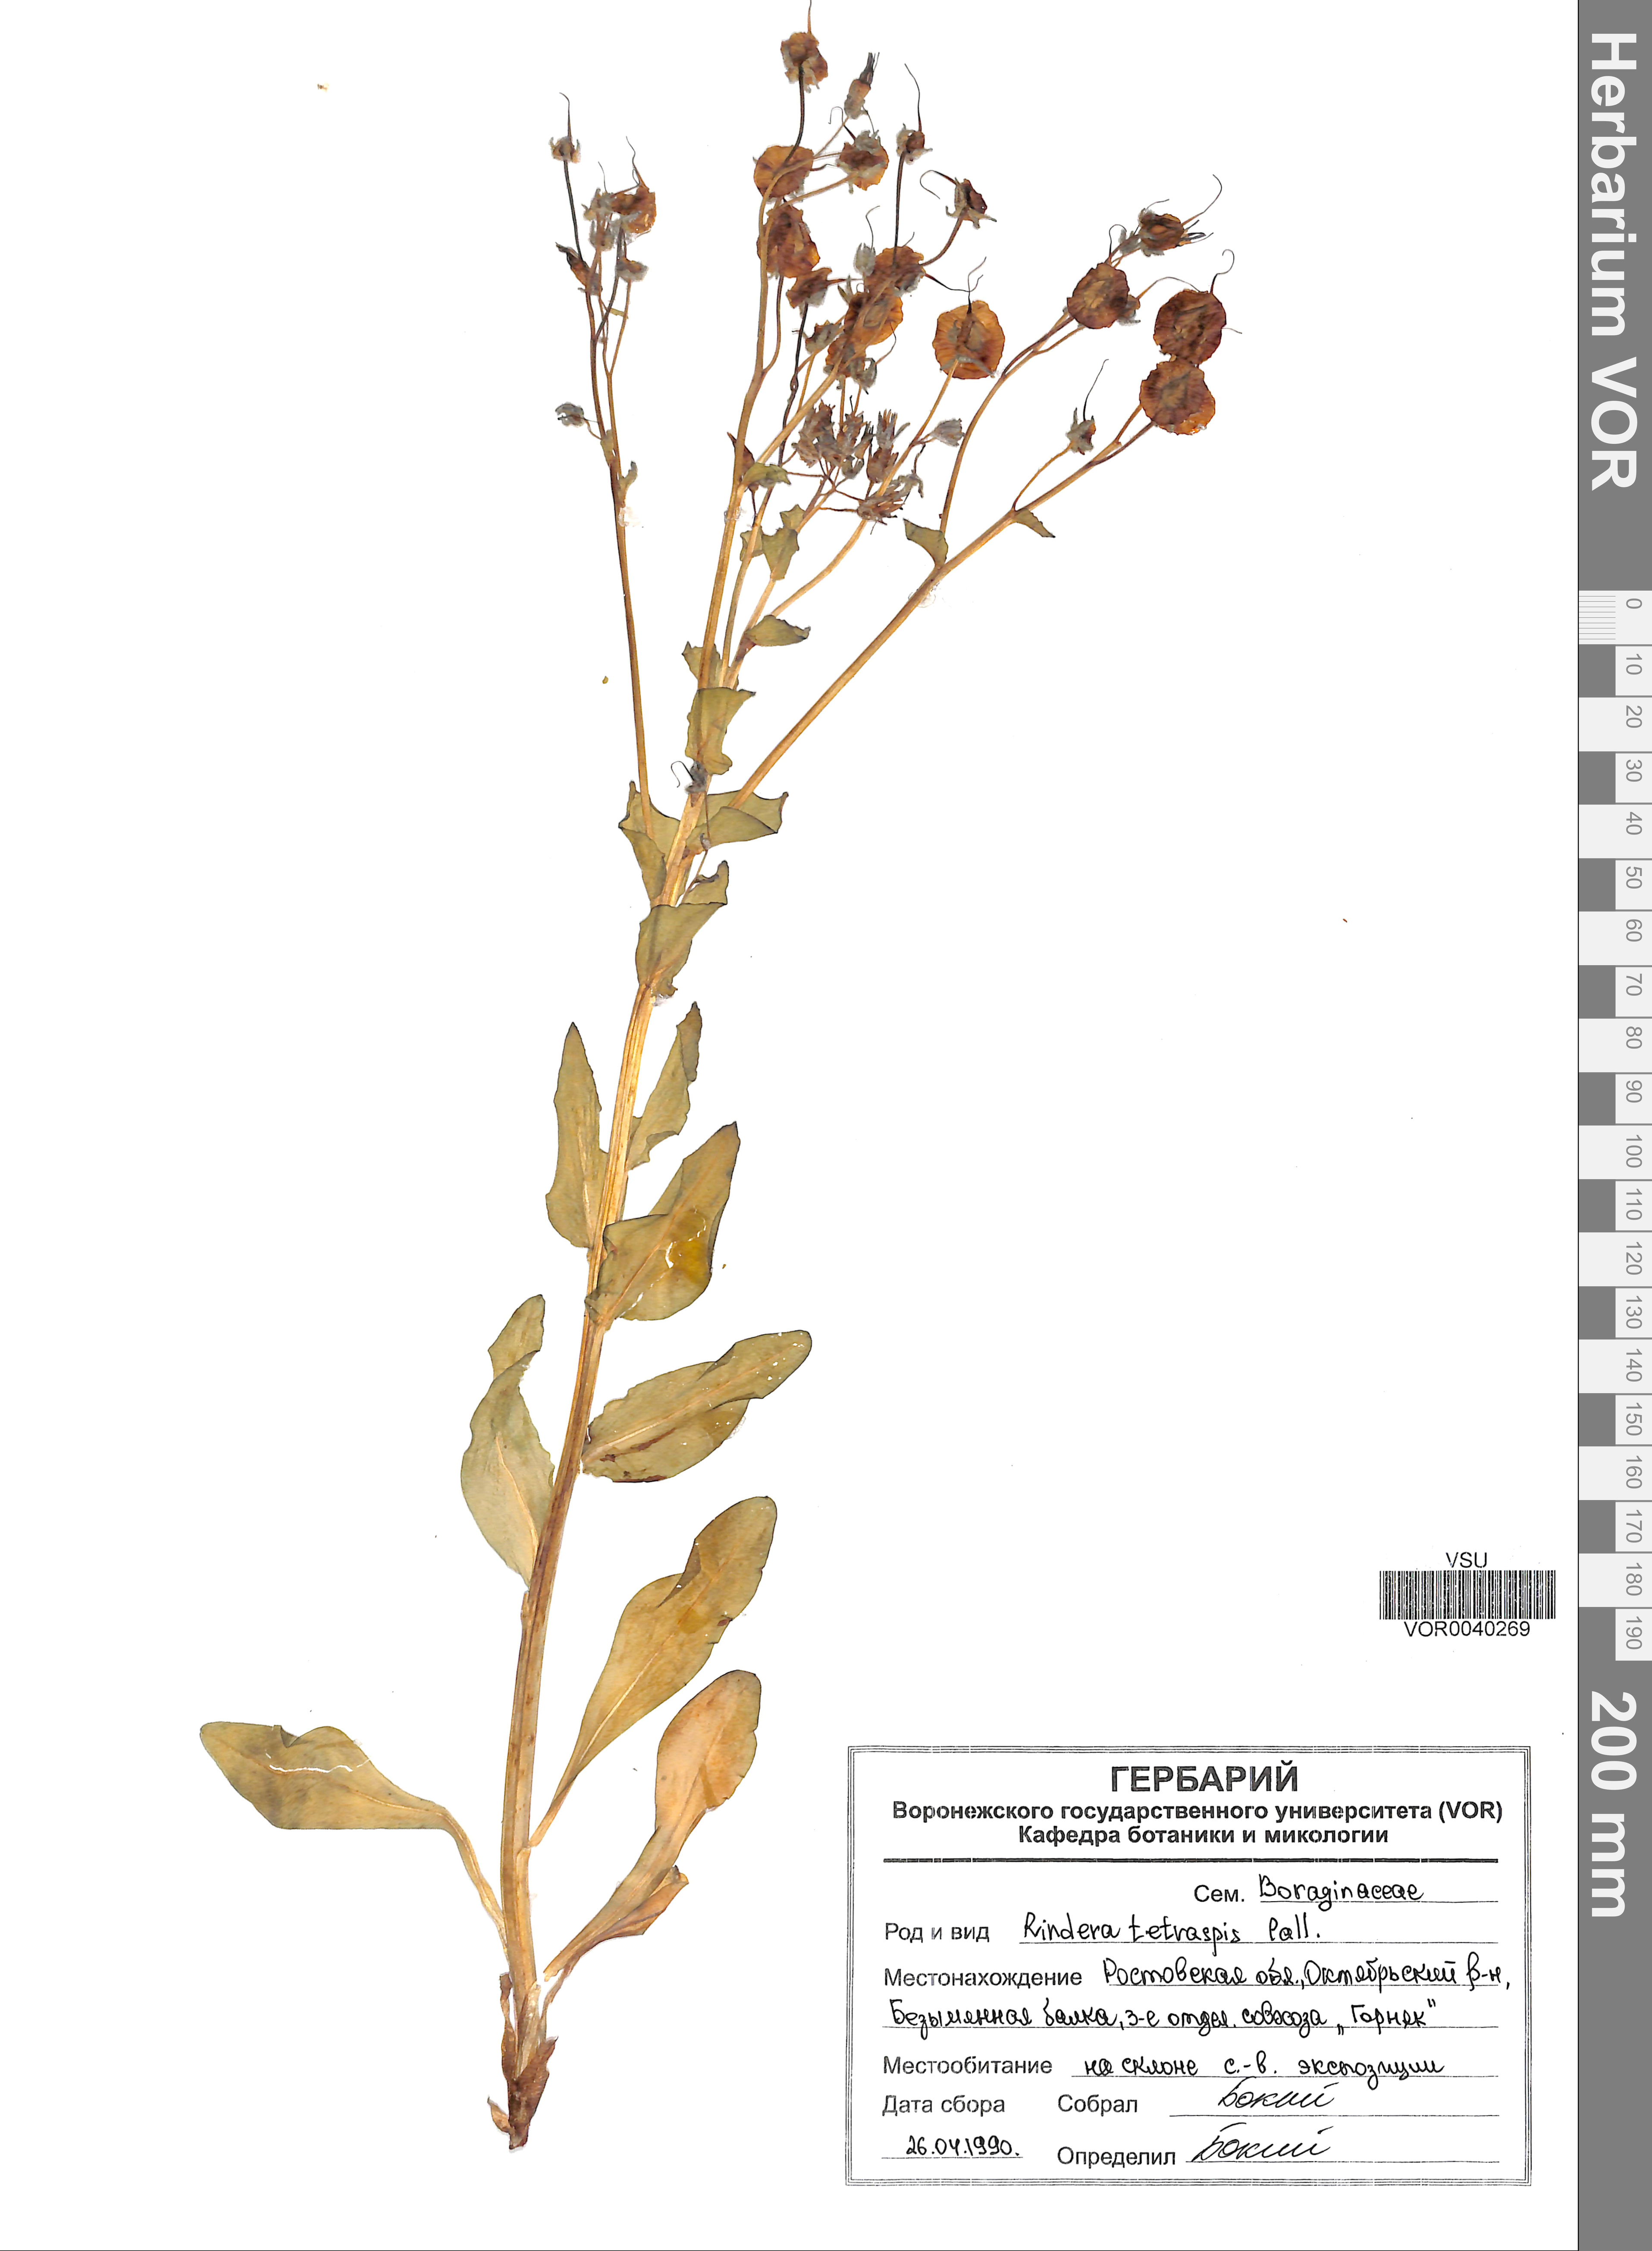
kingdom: Plantae
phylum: Tracheophyta
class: Magnoliopsida
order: Boraginales
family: Boraginaceae
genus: Rindera
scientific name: Rindera tetraspis
